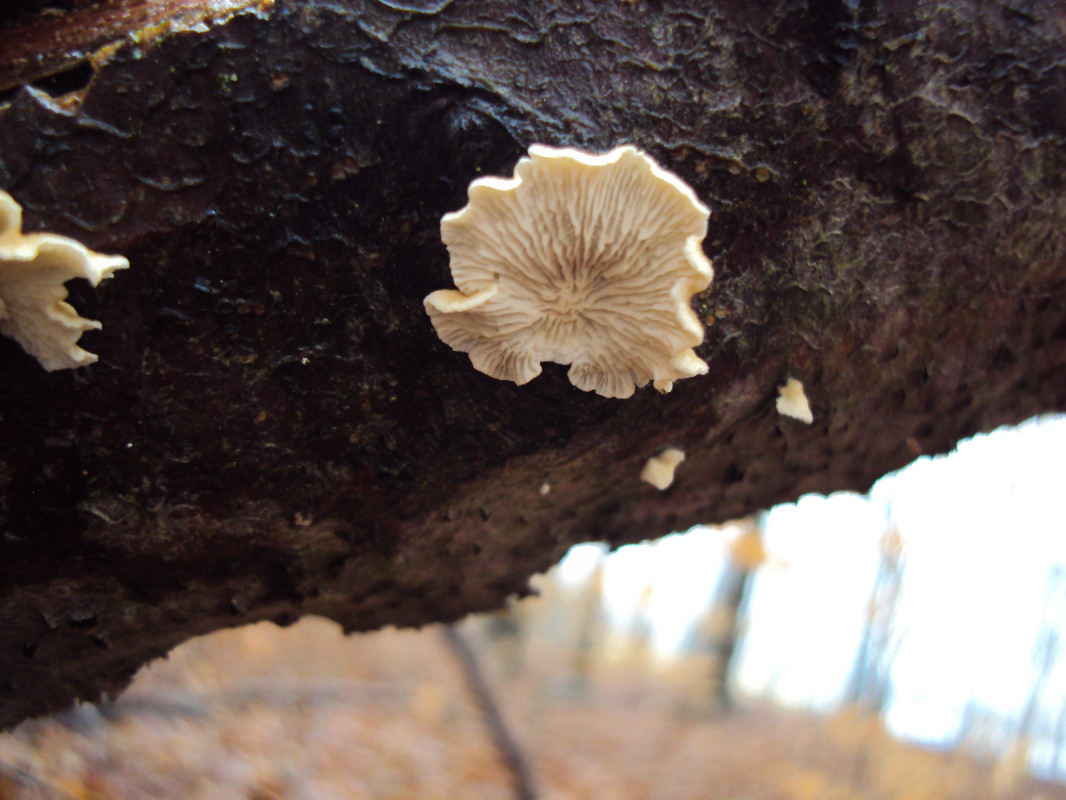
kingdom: Fungi
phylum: Basidiomycota
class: Agaricomycetes
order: Amylocorticiales
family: Amylocorticiaceae
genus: Plicaturopsis
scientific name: Plicaturopsis crispa
